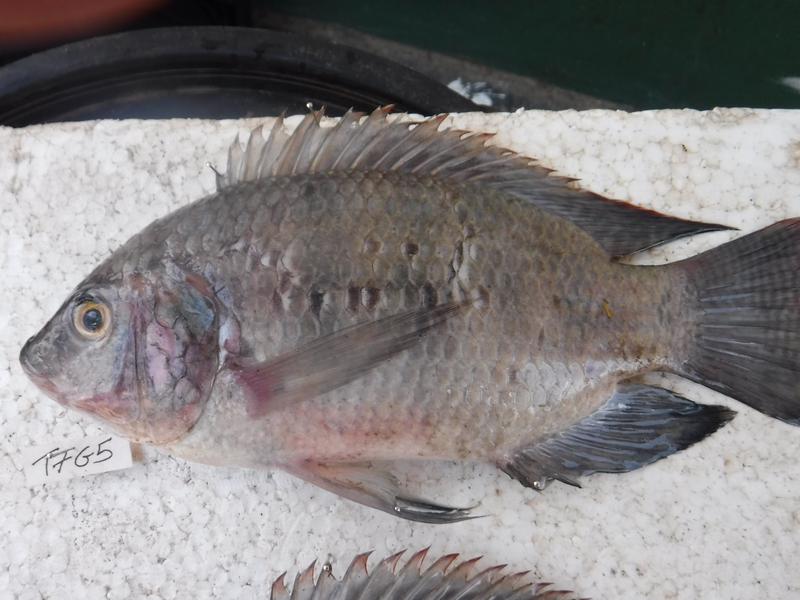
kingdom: Animalia
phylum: Chordata
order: Perciformes
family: Cichlidae
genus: Oreochromis
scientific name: Oreochromis urolepis
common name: Wami tilapia
